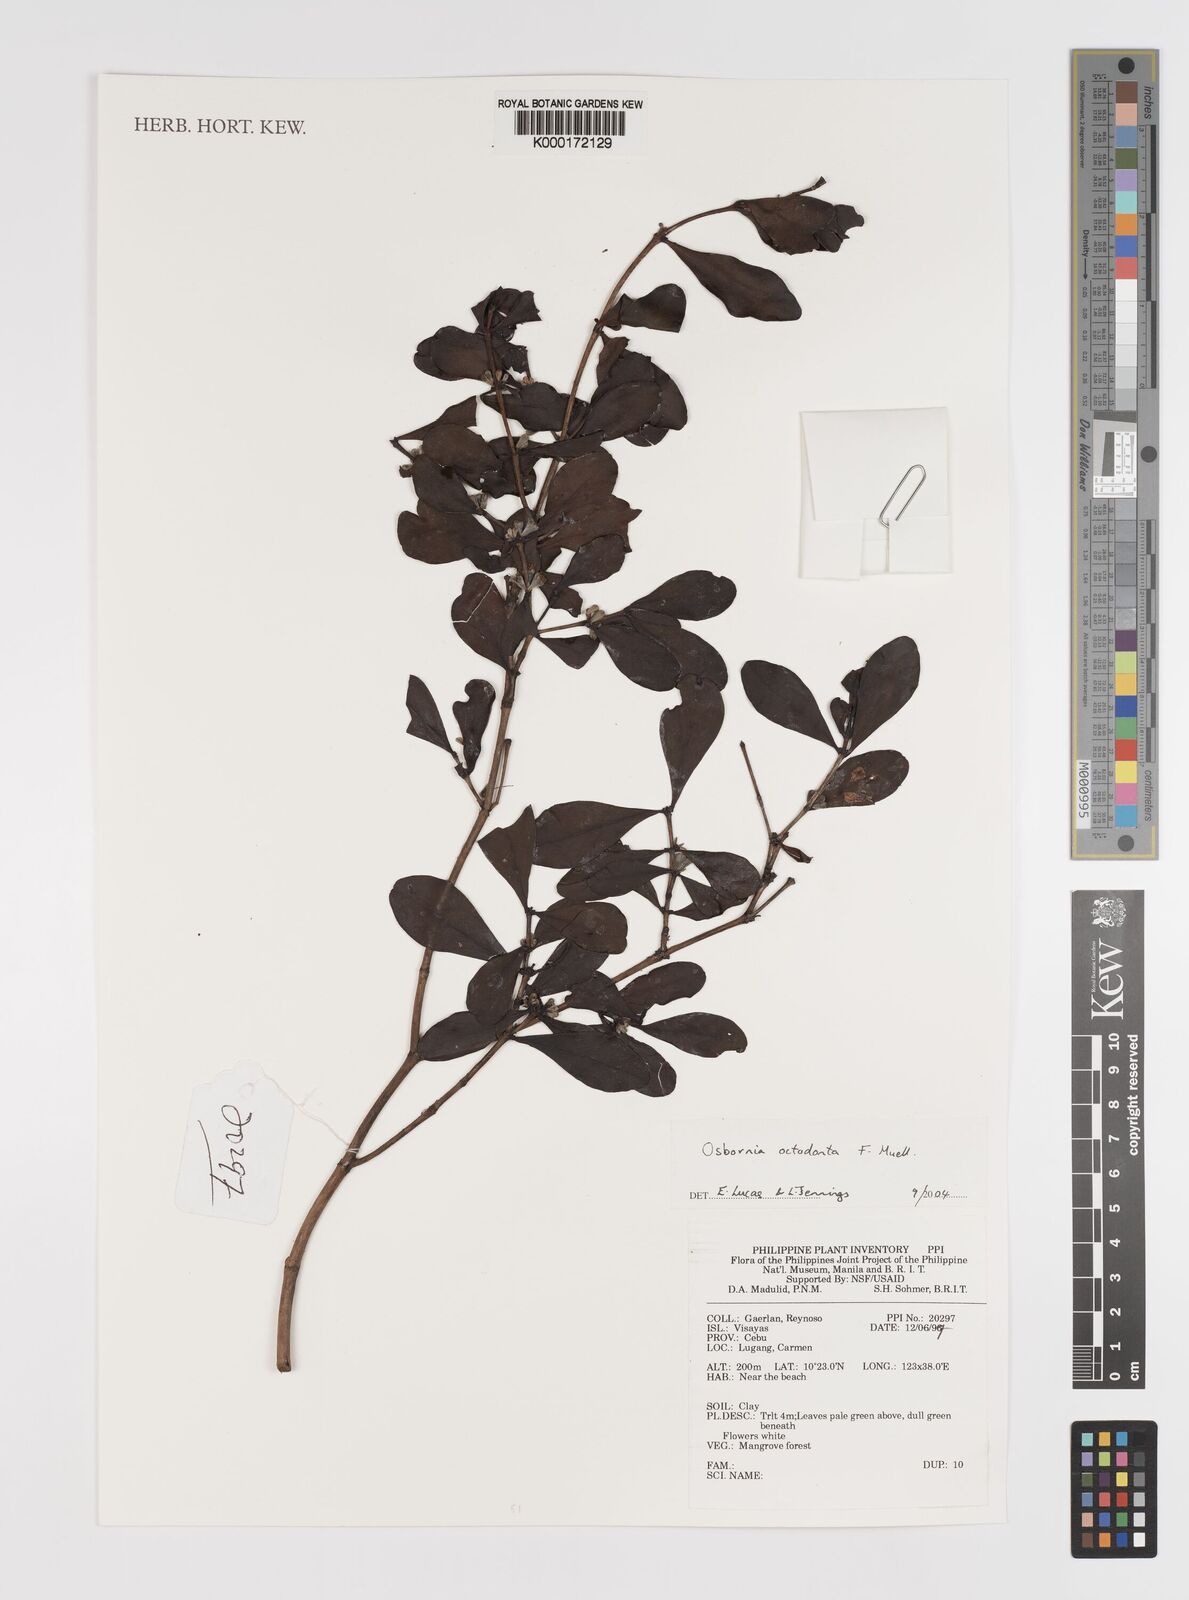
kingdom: Plantae
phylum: Tracheophyta
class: Magnoliopsida
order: Myrtales
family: Myrtaceae
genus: Osbornia
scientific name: Osbornia octodonta
